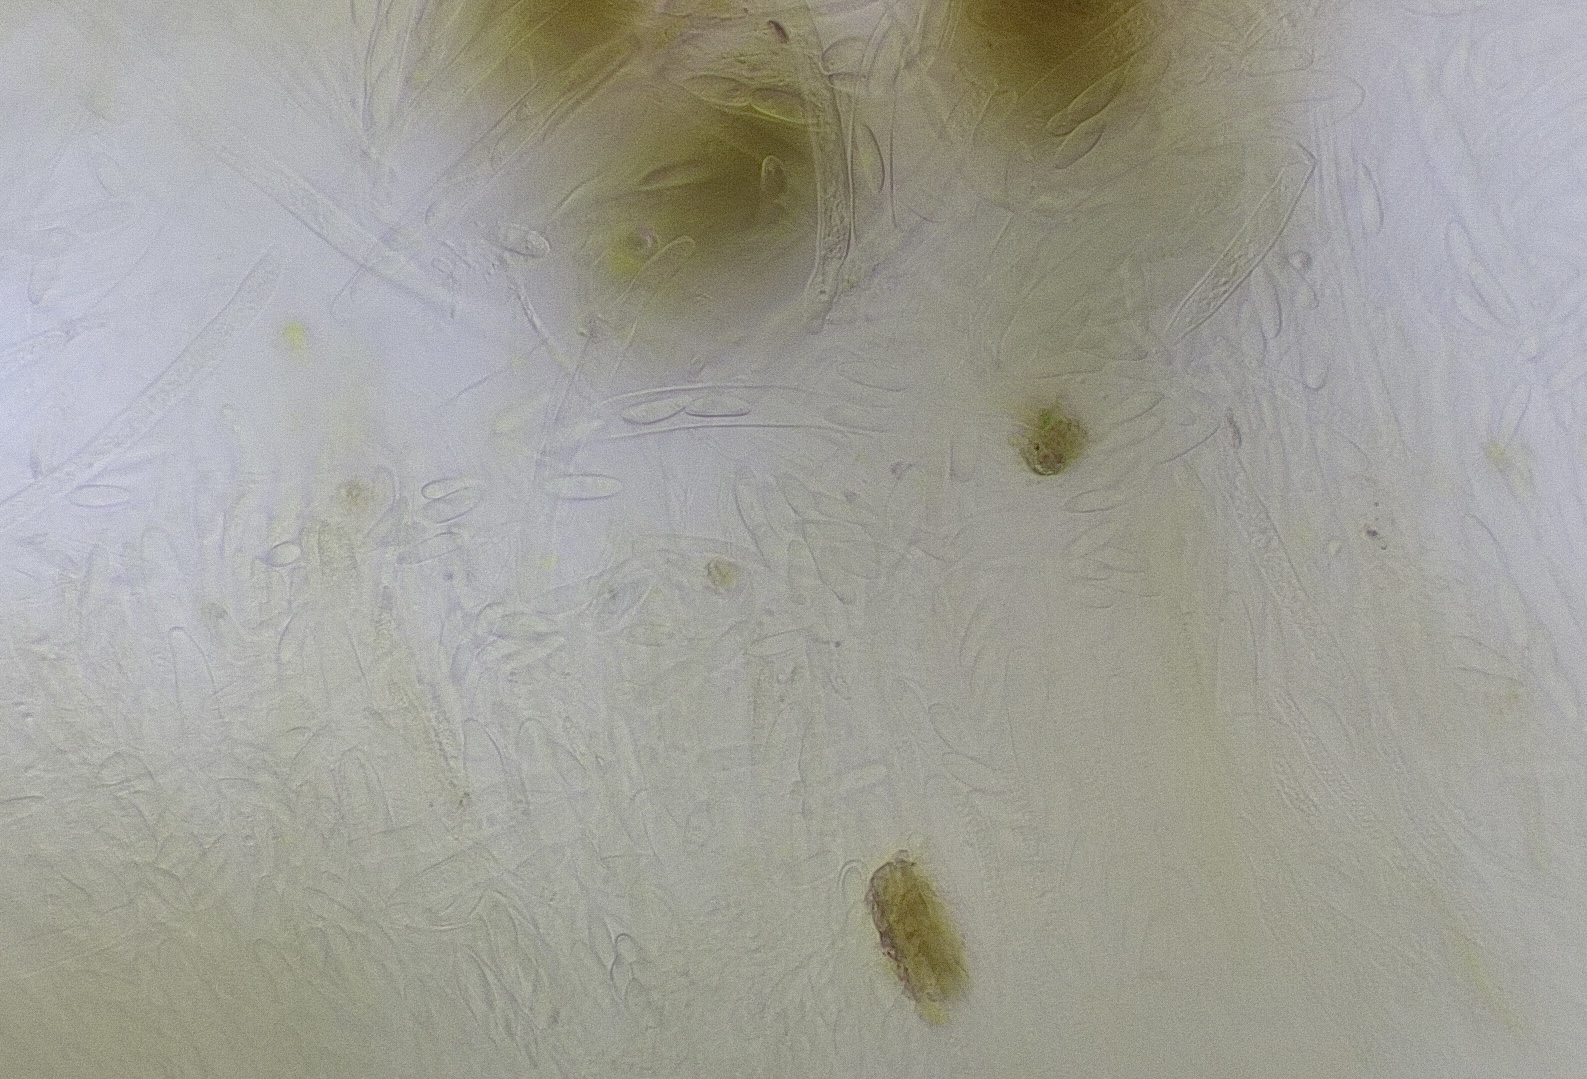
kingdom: Fungi
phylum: Ascomycota
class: Leotiomycetes
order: Helotiales
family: Helotiaceae
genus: Hymenoscyphus
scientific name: Hymenoscyphus
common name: stilkskive
